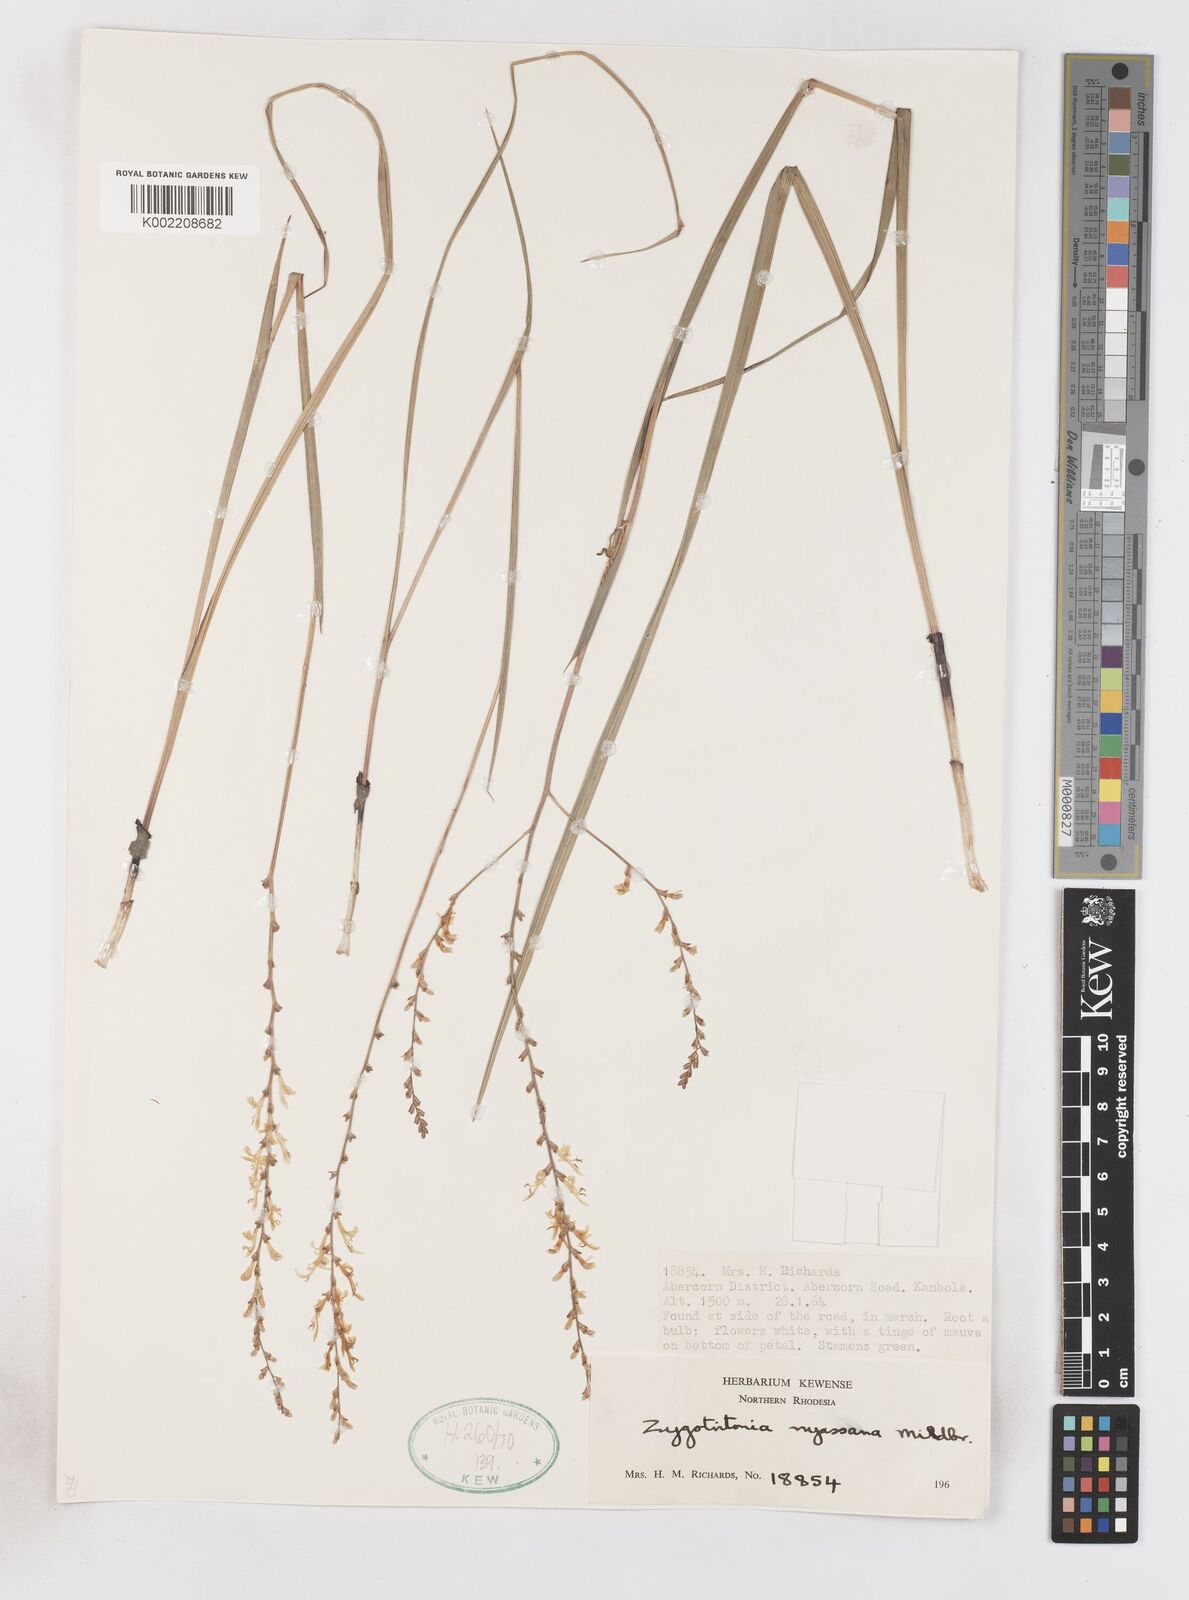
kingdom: Plantae
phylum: Tracheophyta
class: Liliopsida
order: Asparagales
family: Iridaceae
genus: Zygotritonia
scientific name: Zygotritonia nyassana
